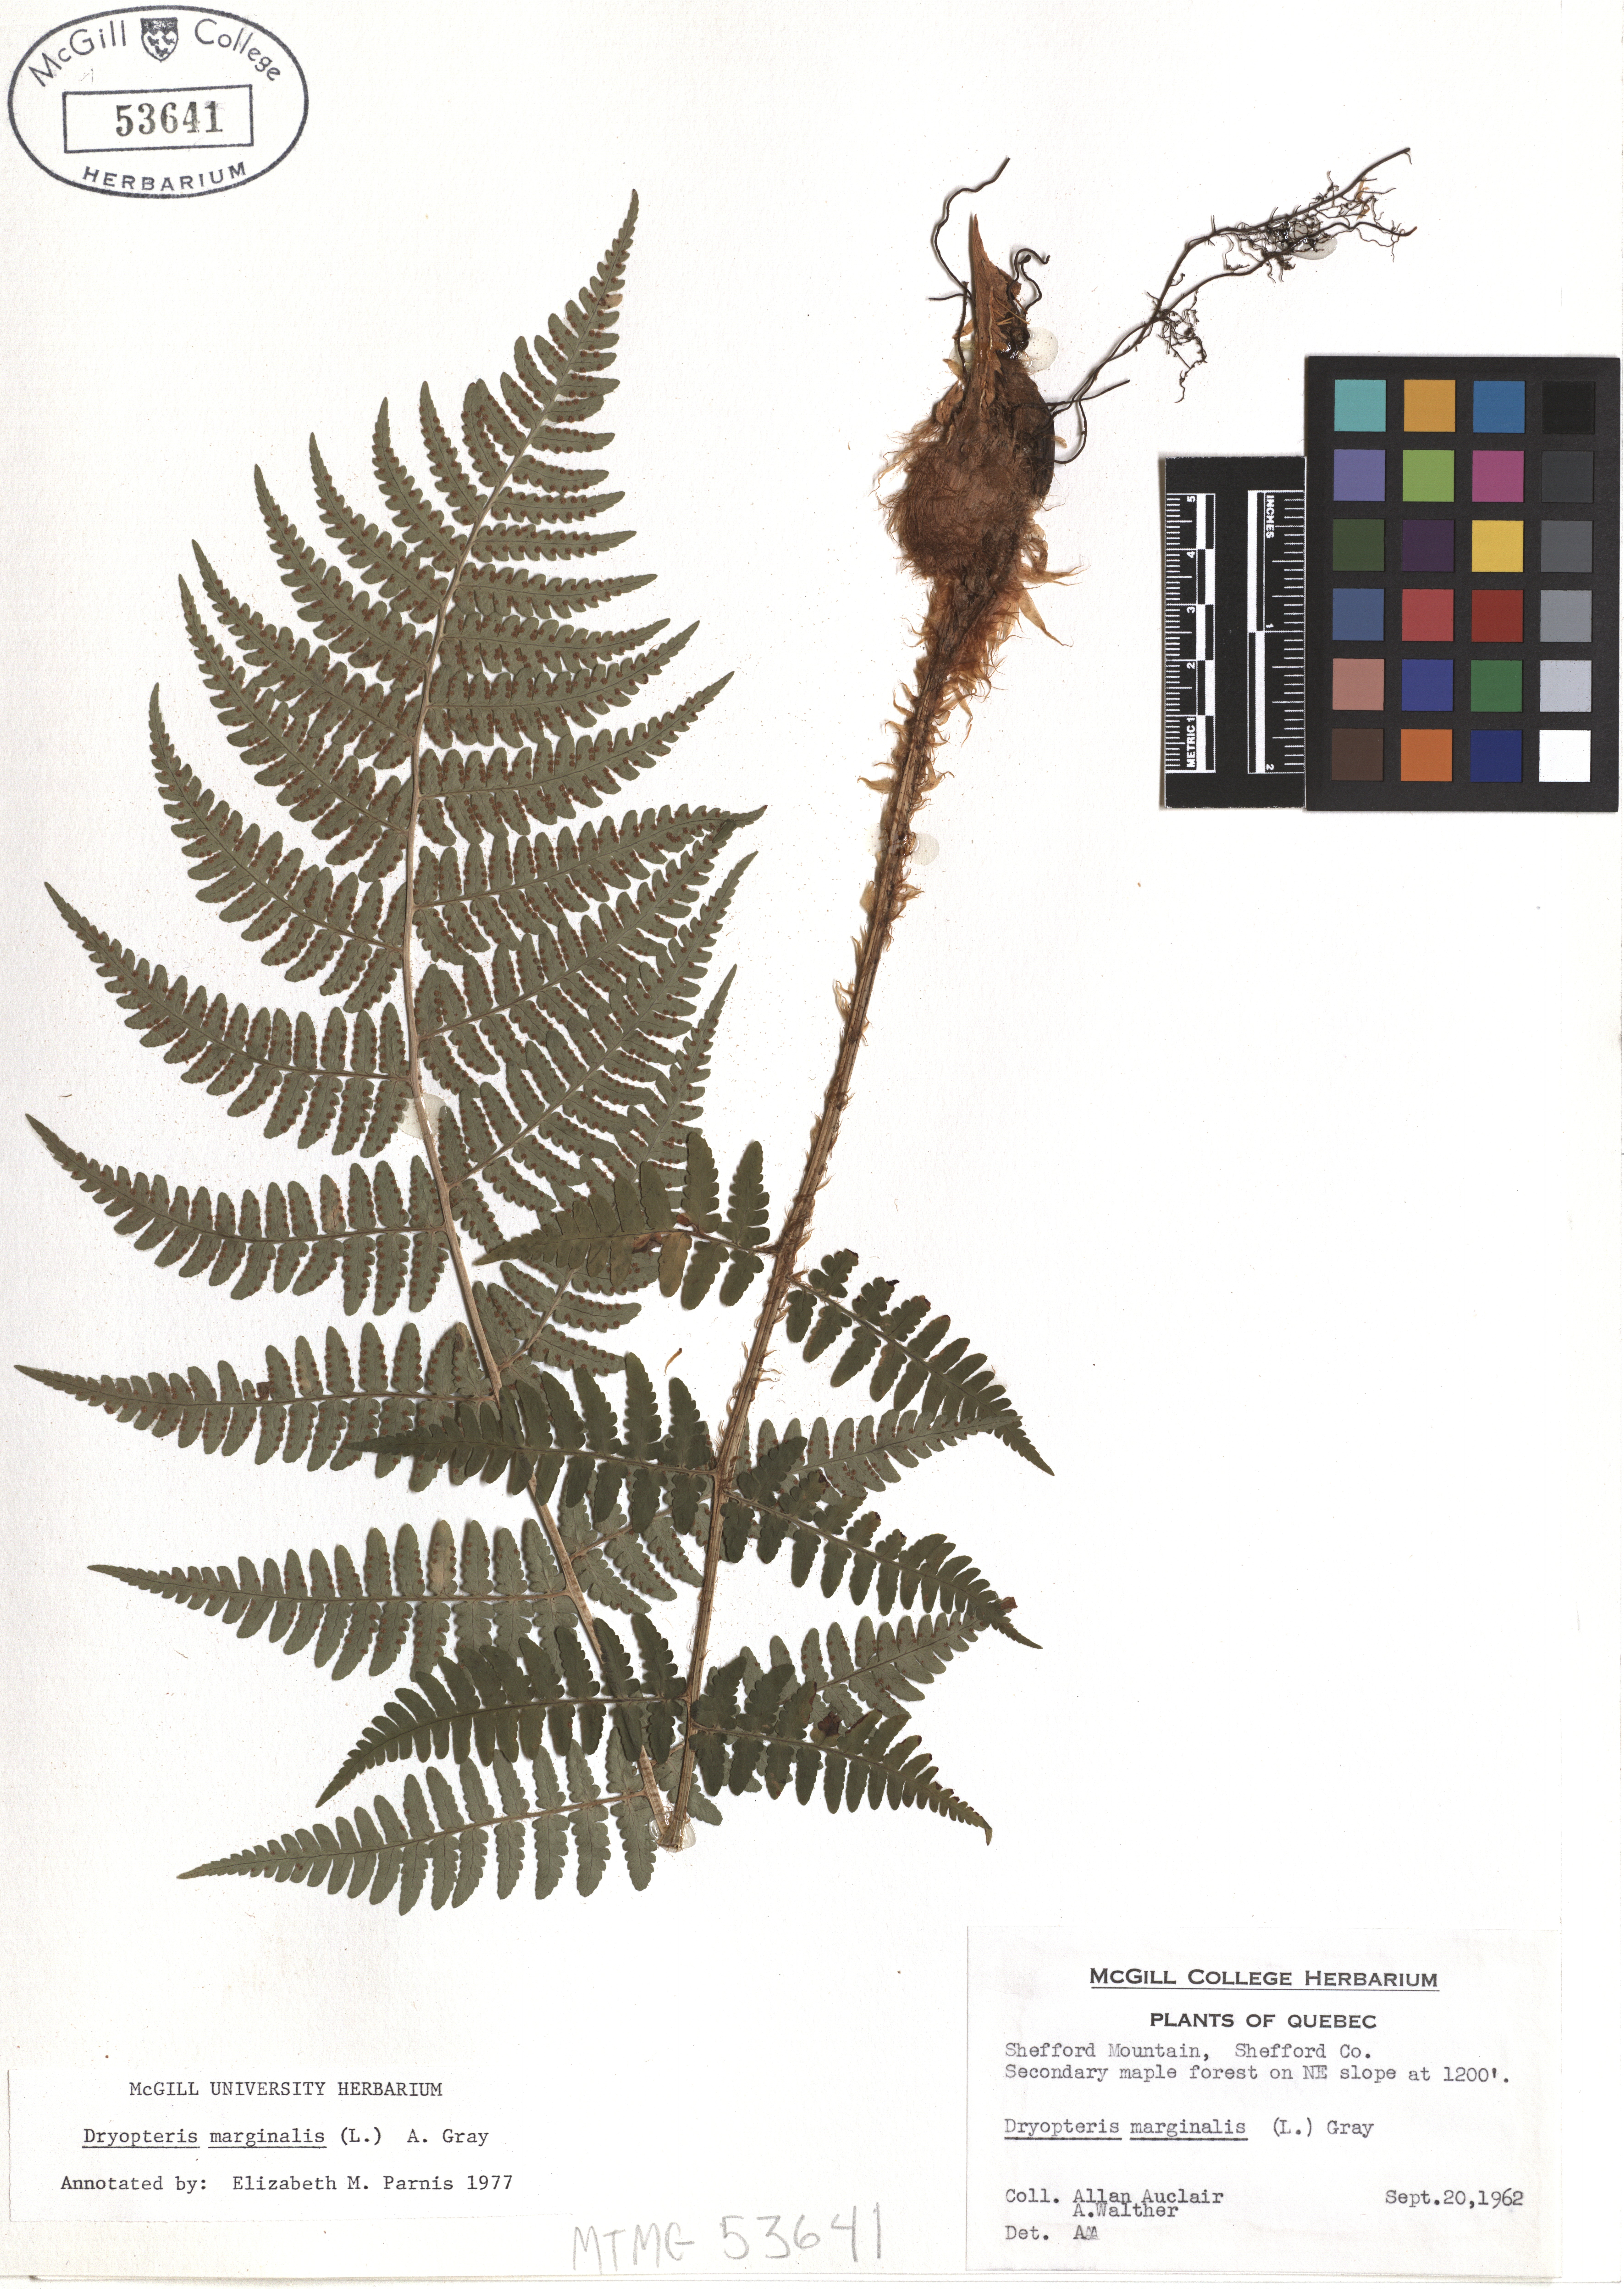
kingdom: Plantae
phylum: Tracheophyta
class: Polypodiopsida
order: Polypodiales
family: Dryopteridaceae
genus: Dryopteris
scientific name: Dryopteris marginalis
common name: Marginal wood fern
